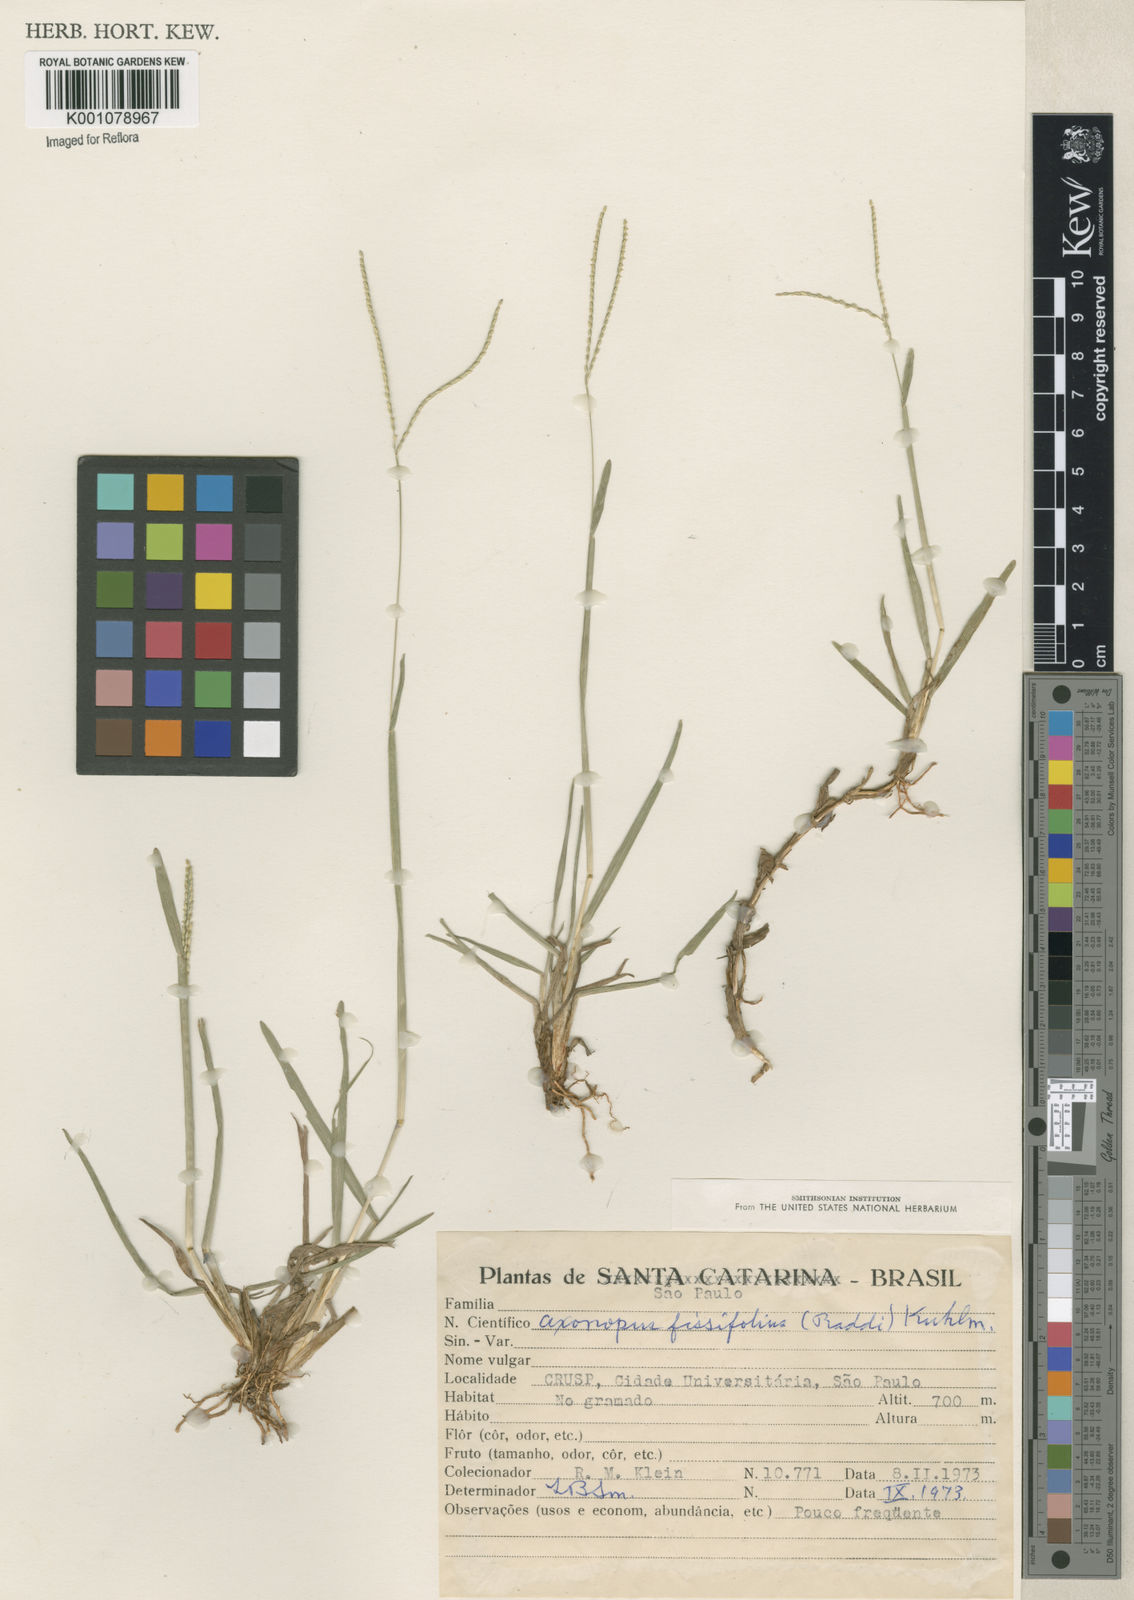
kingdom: Plantae
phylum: Tracheophyta
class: Liliopsida
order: Poales
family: Poaceae
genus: Axonopus
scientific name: Axonopus fissifolius
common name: Common carpetgrass
